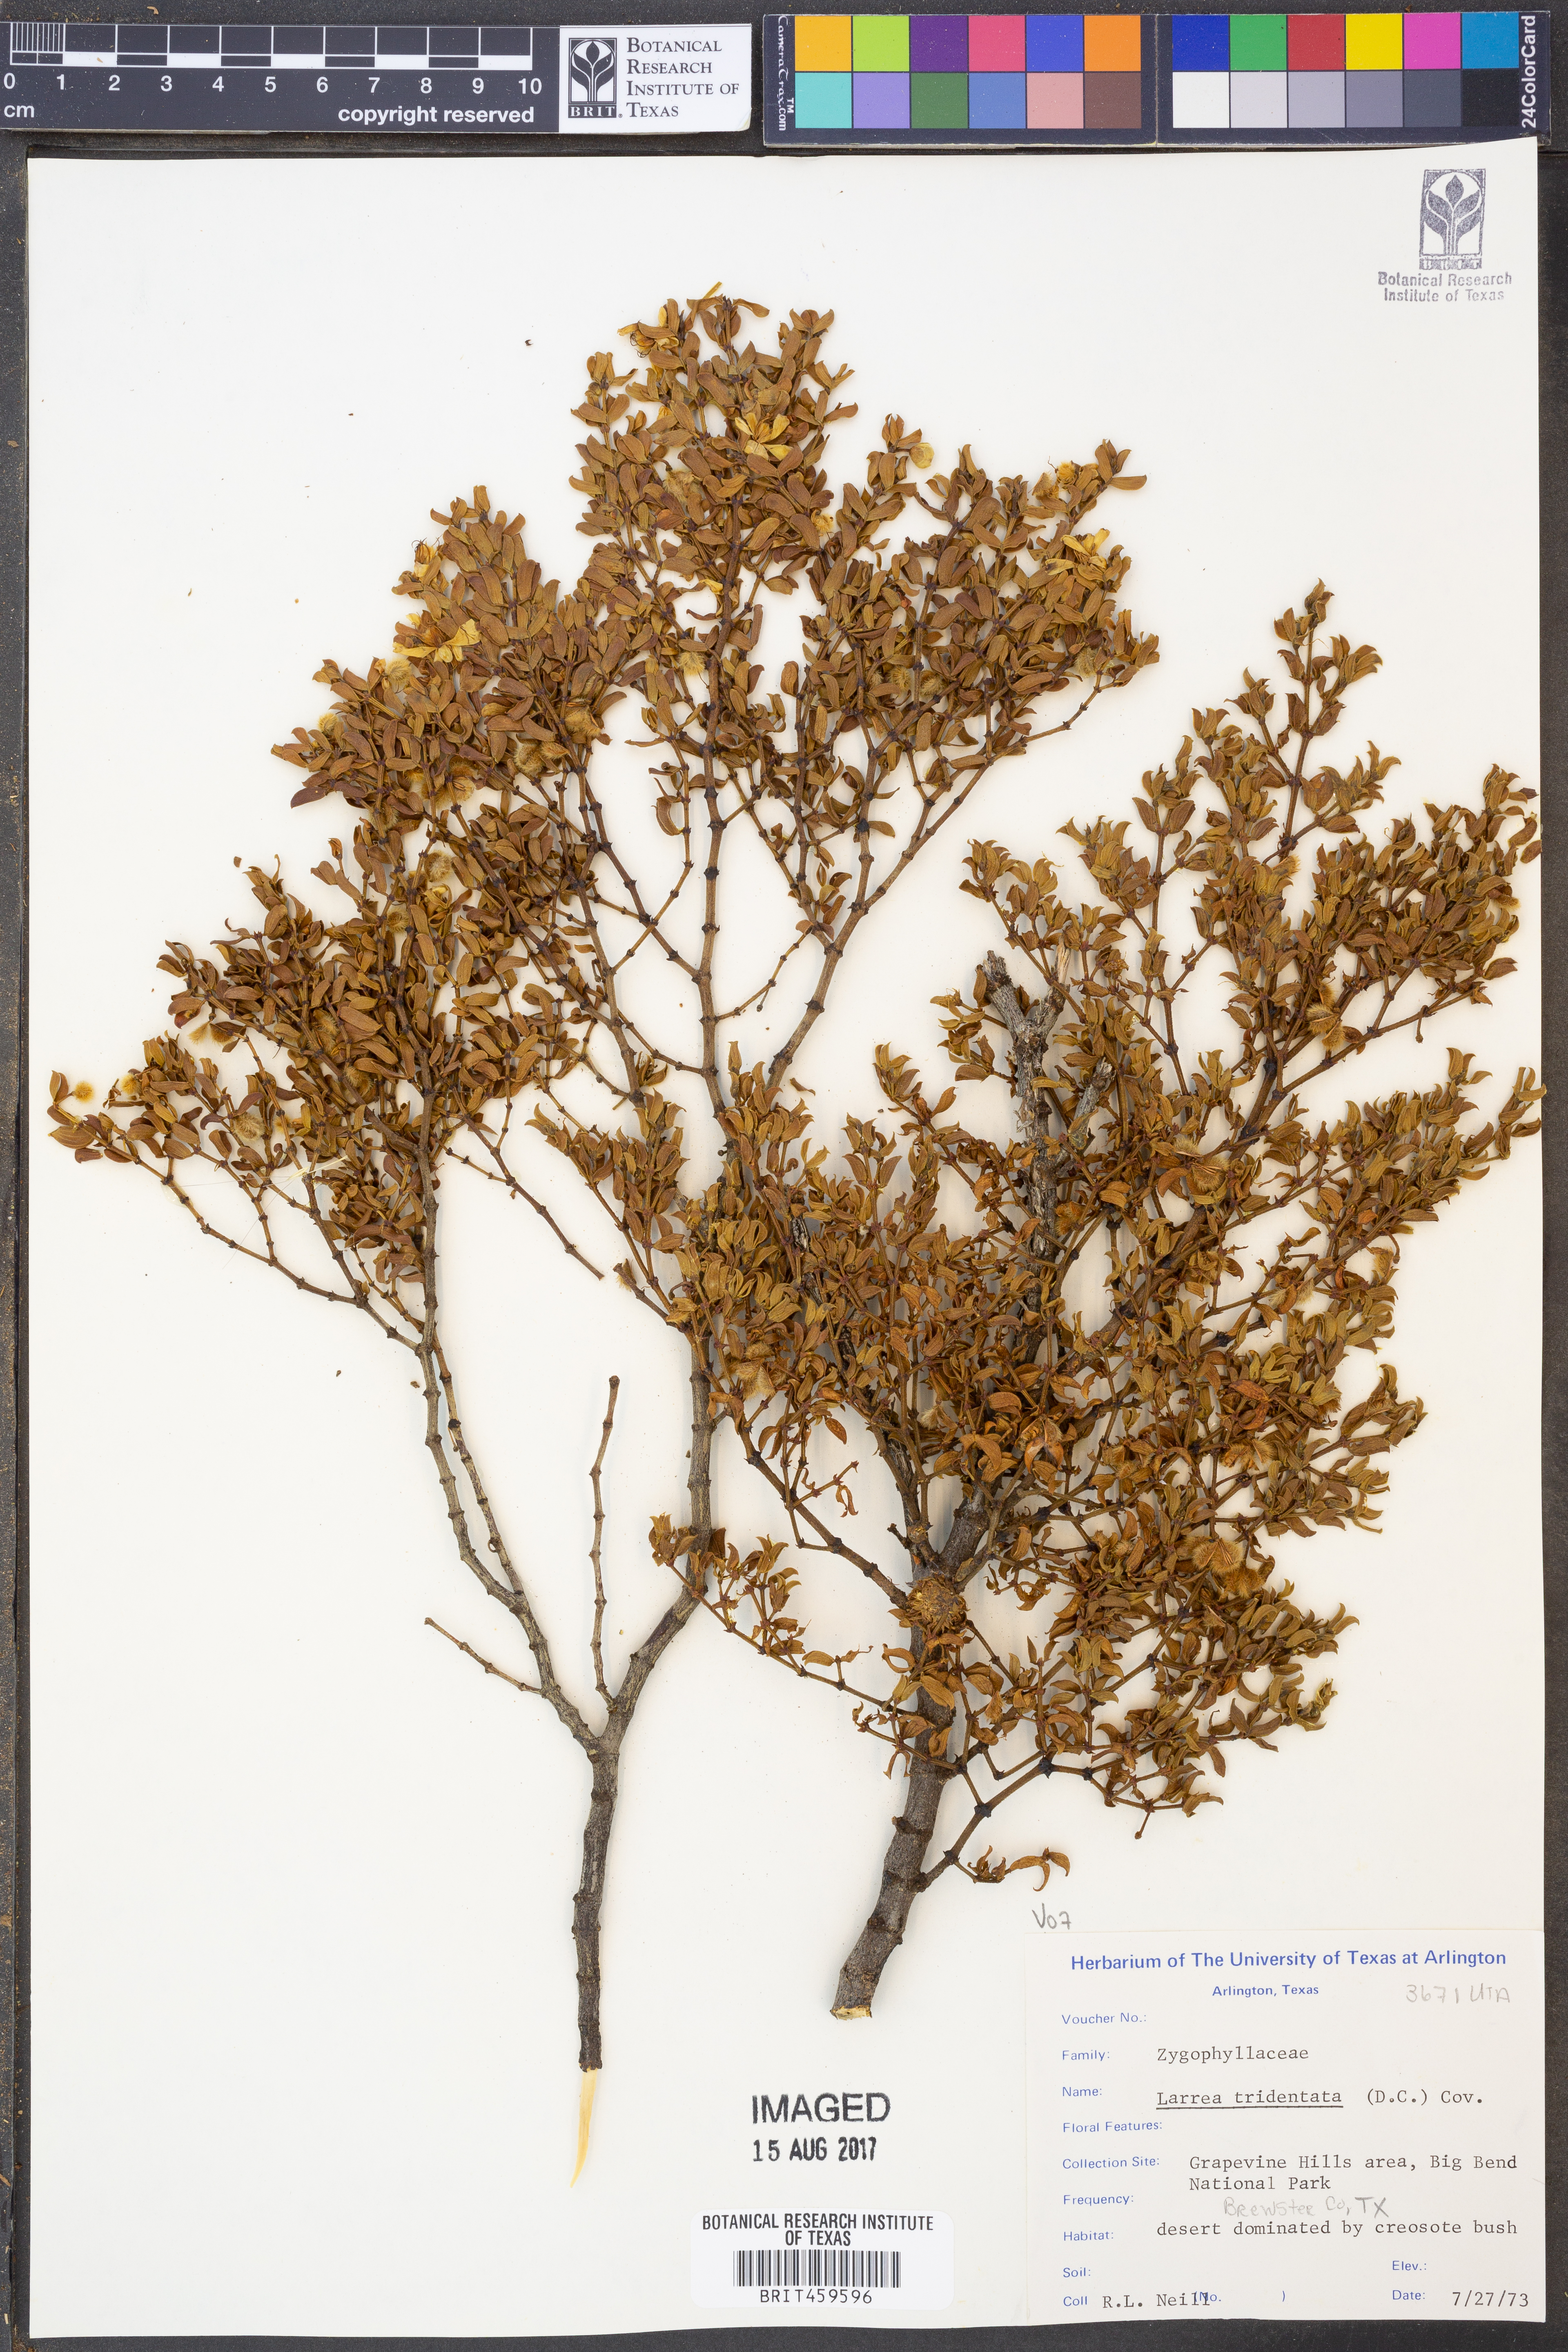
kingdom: Plantae
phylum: Tracheophyta
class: Magnoliopsida
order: Zygophyllales
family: Zygophyllaceae
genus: Larrea
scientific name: Larrea tridentata
